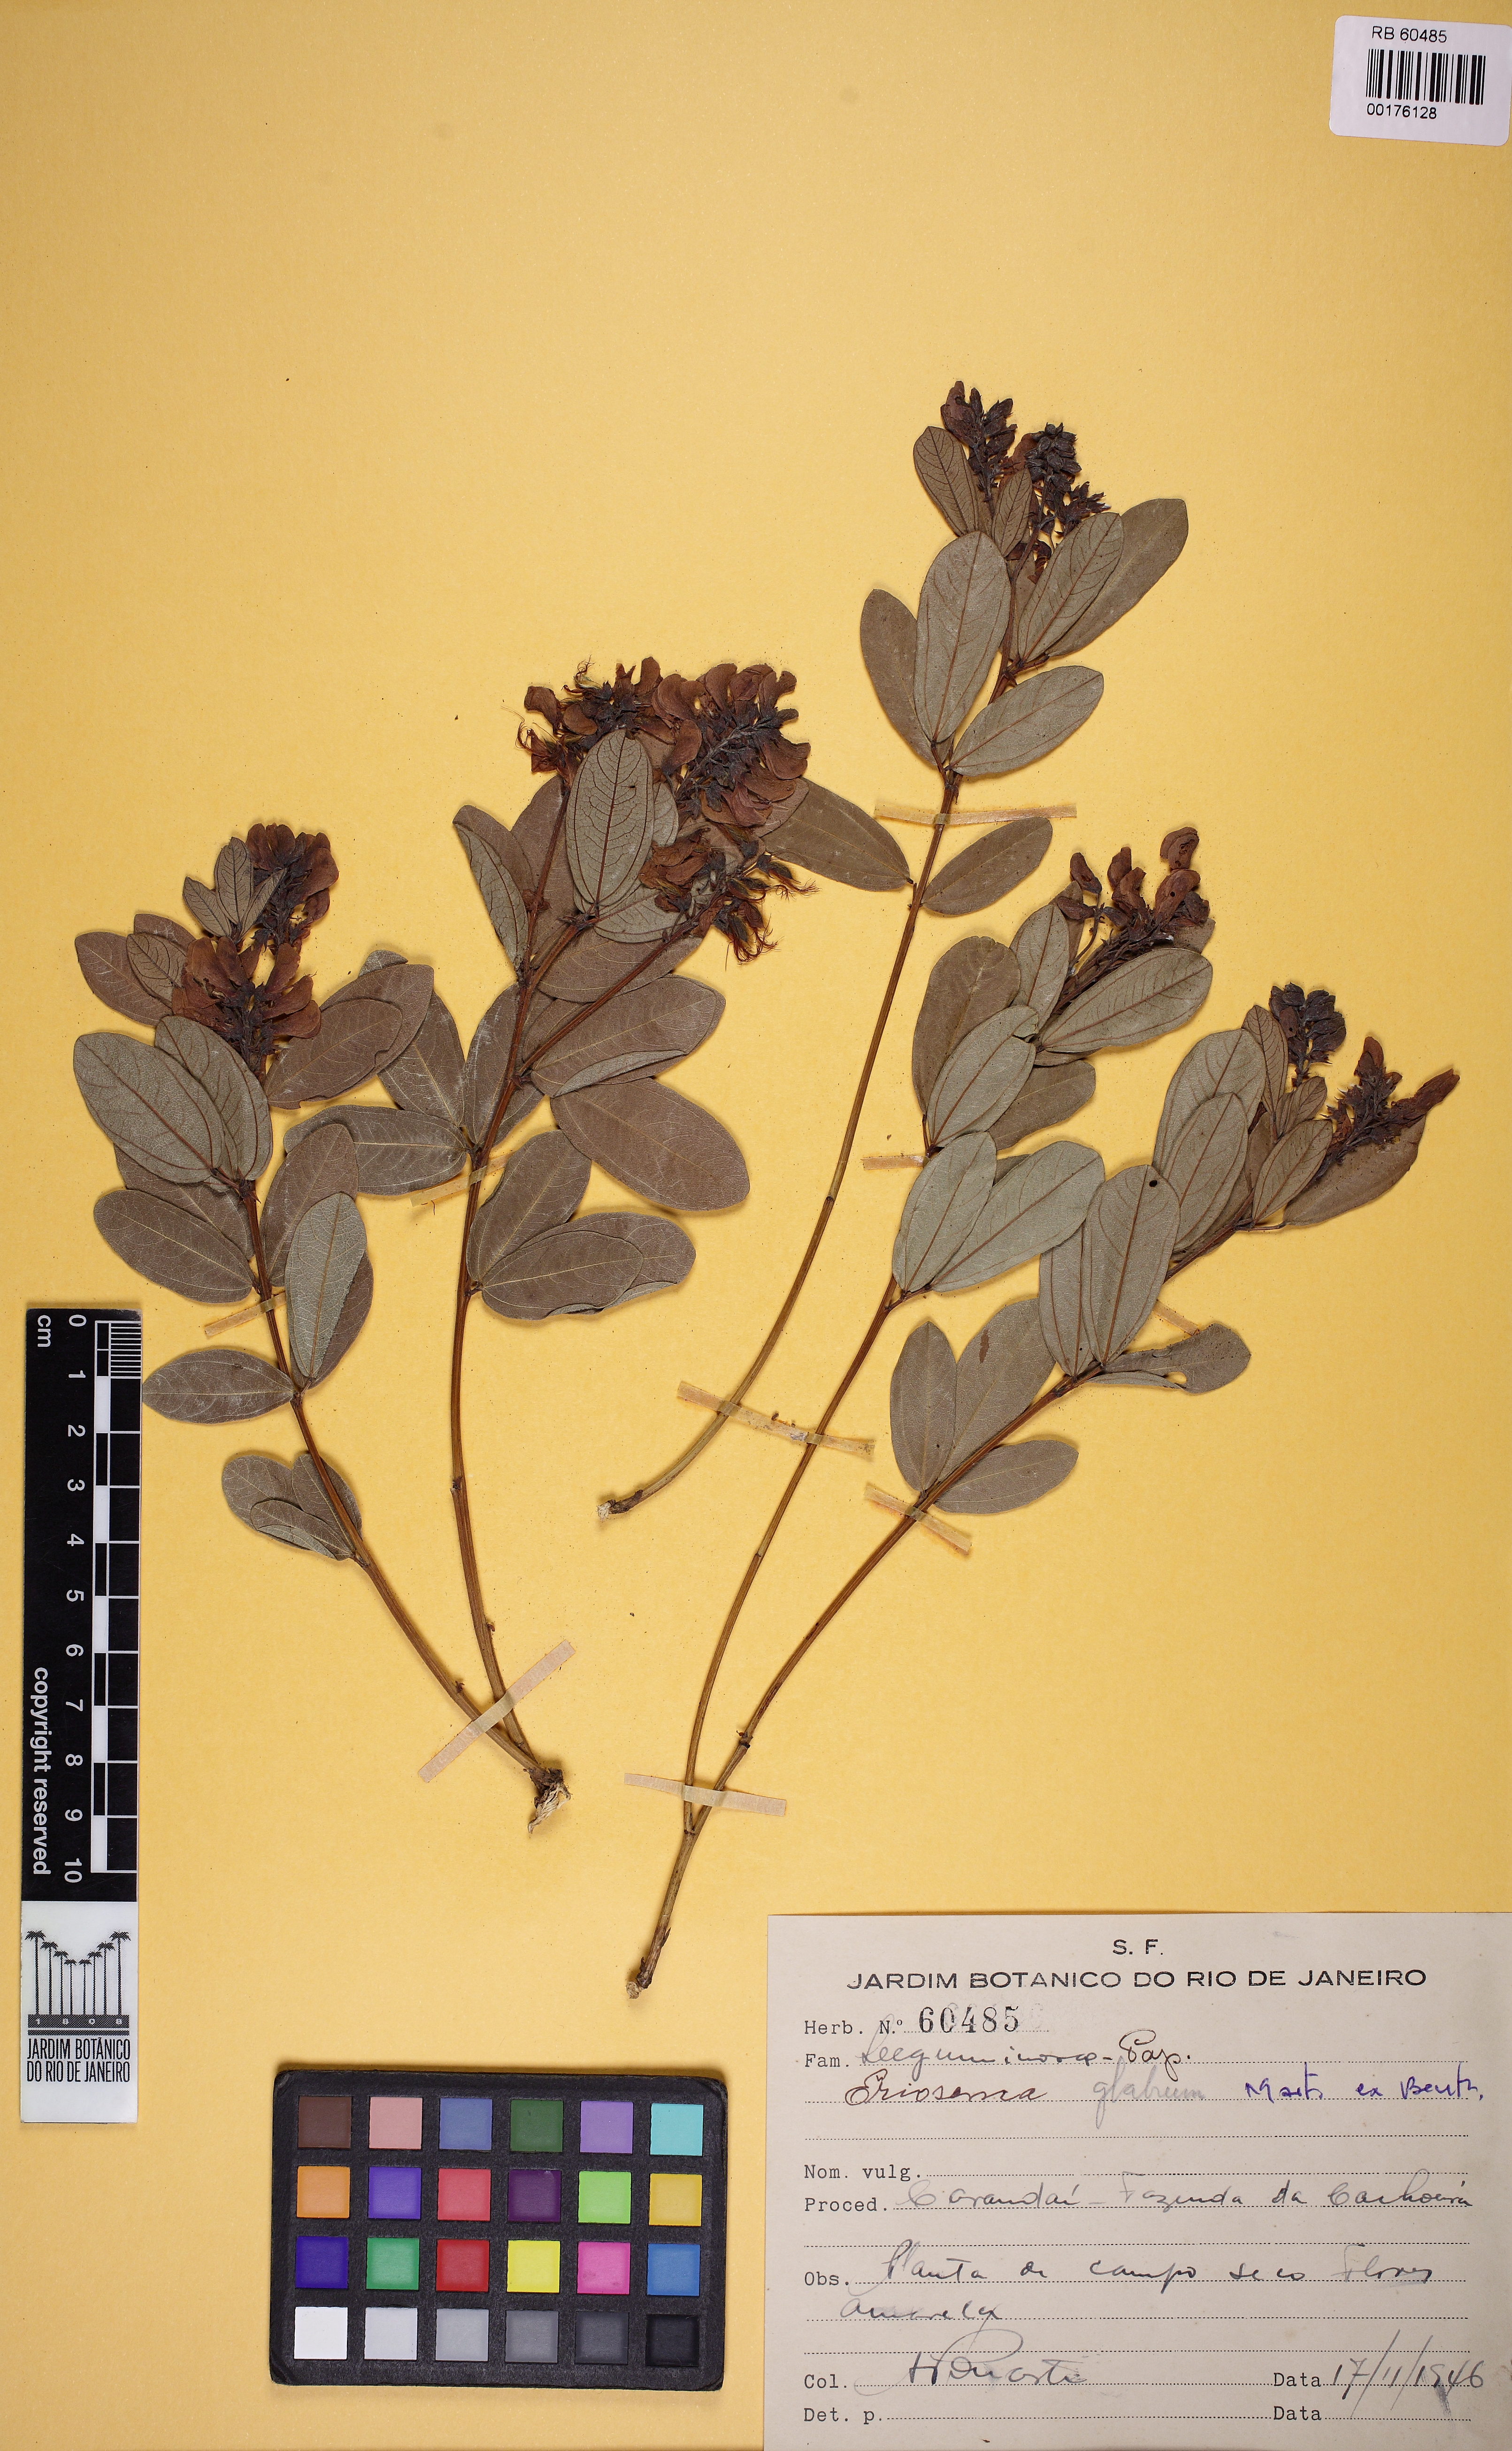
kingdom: Plantae
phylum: Tracheophyta
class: Magnoliopsida
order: Fabales
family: Fabaceae
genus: Eriosema
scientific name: Eriosema glabrum
